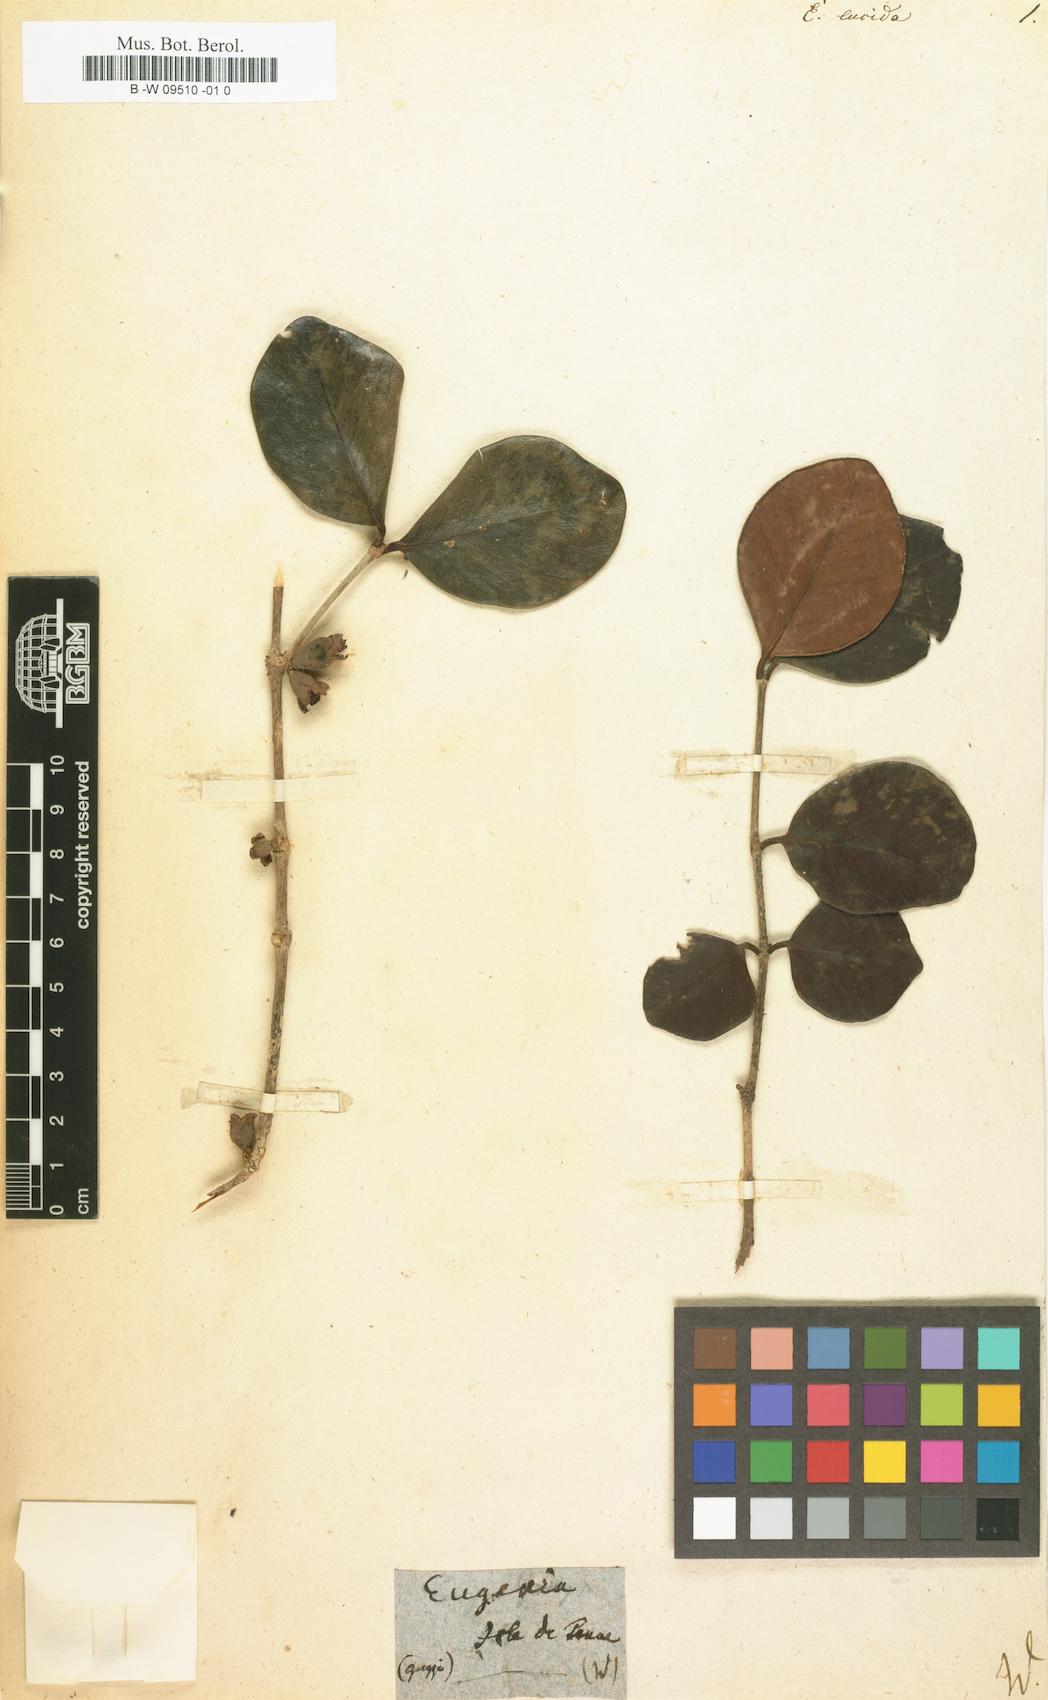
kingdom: Plantae
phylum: Tracheophyta
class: Magnoliopsida
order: Myrtales
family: Myrtaceae
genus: Eugenia
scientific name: Eugenia cerasiflora
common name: Cherry-of-the-rio-grande
